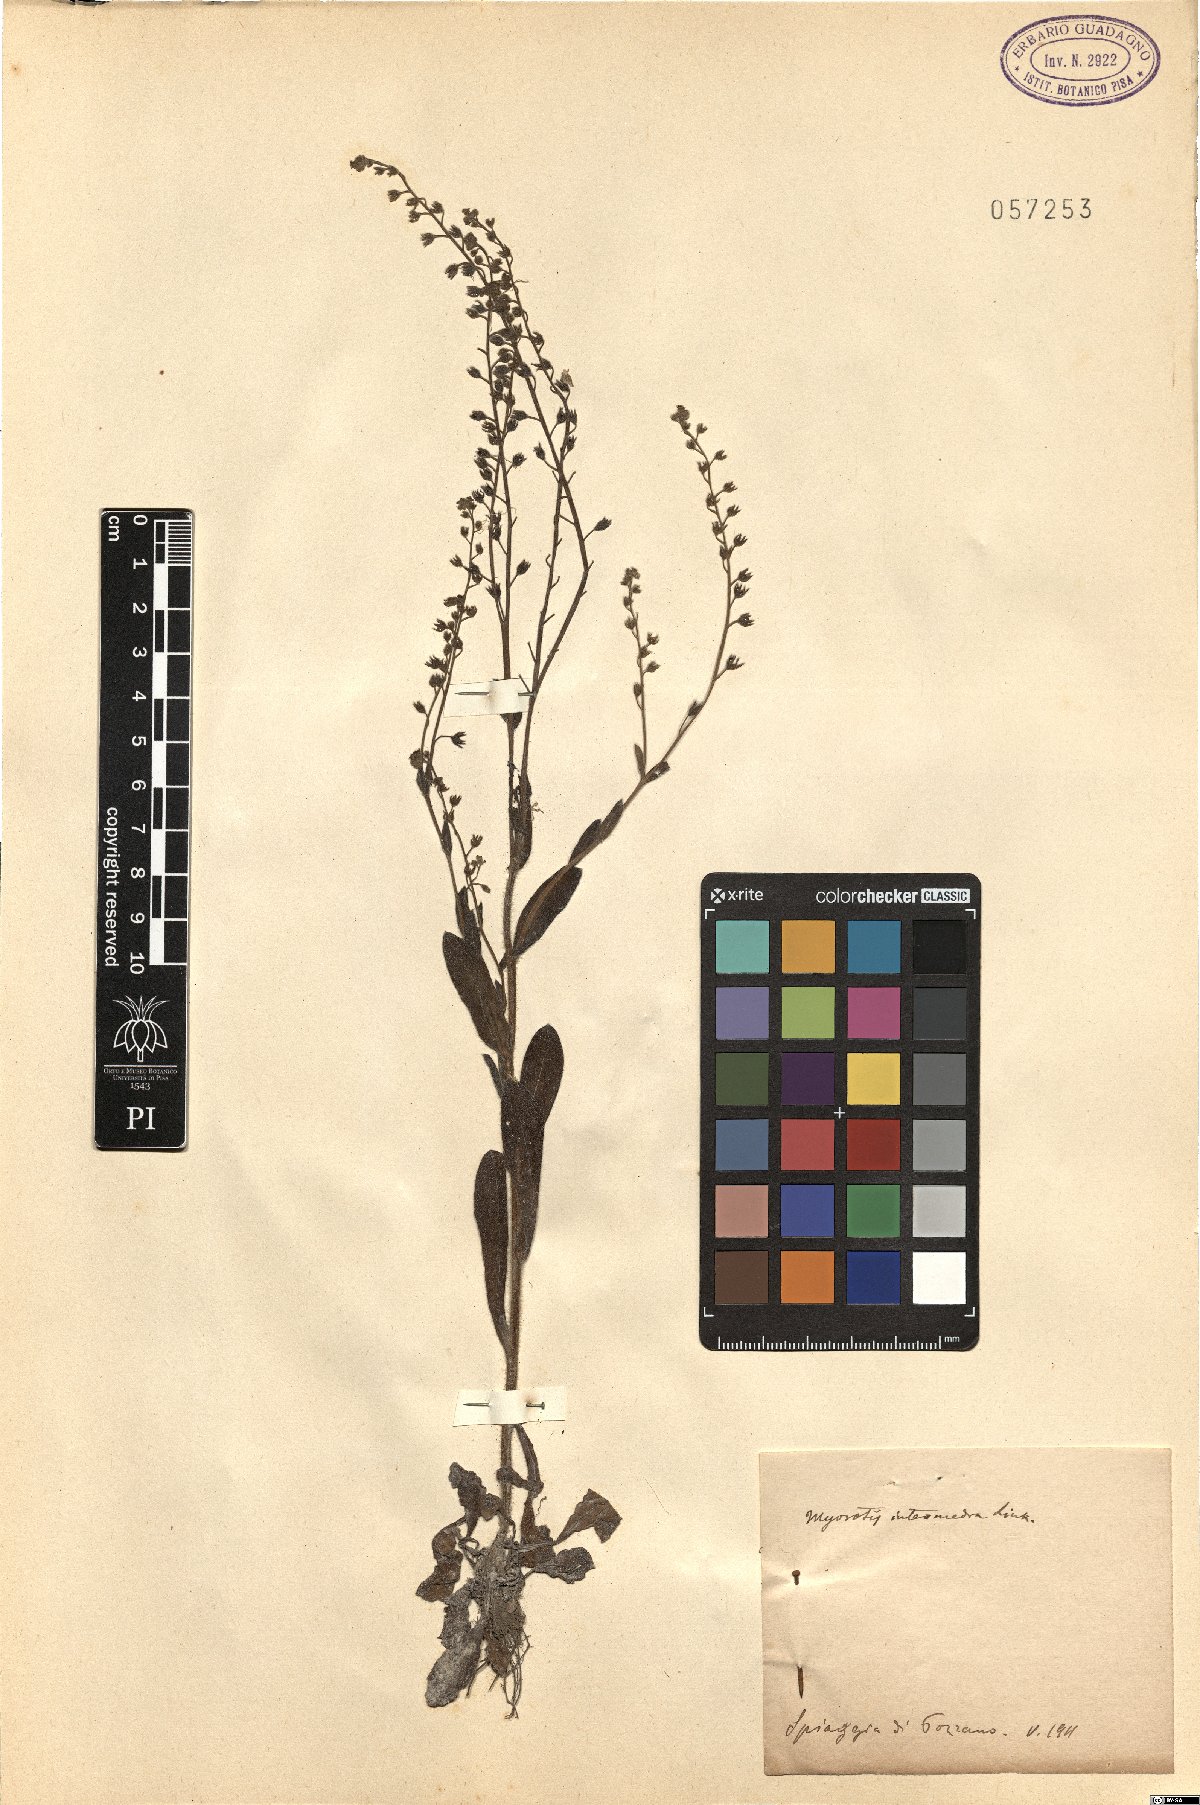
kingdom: Plantae
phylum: Tracheophyta
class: Magnoliopsida
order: Boraginales
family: Boraginaceae
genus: Myosotis
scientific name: Myosotis arvensis
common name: Field forget-me-not
